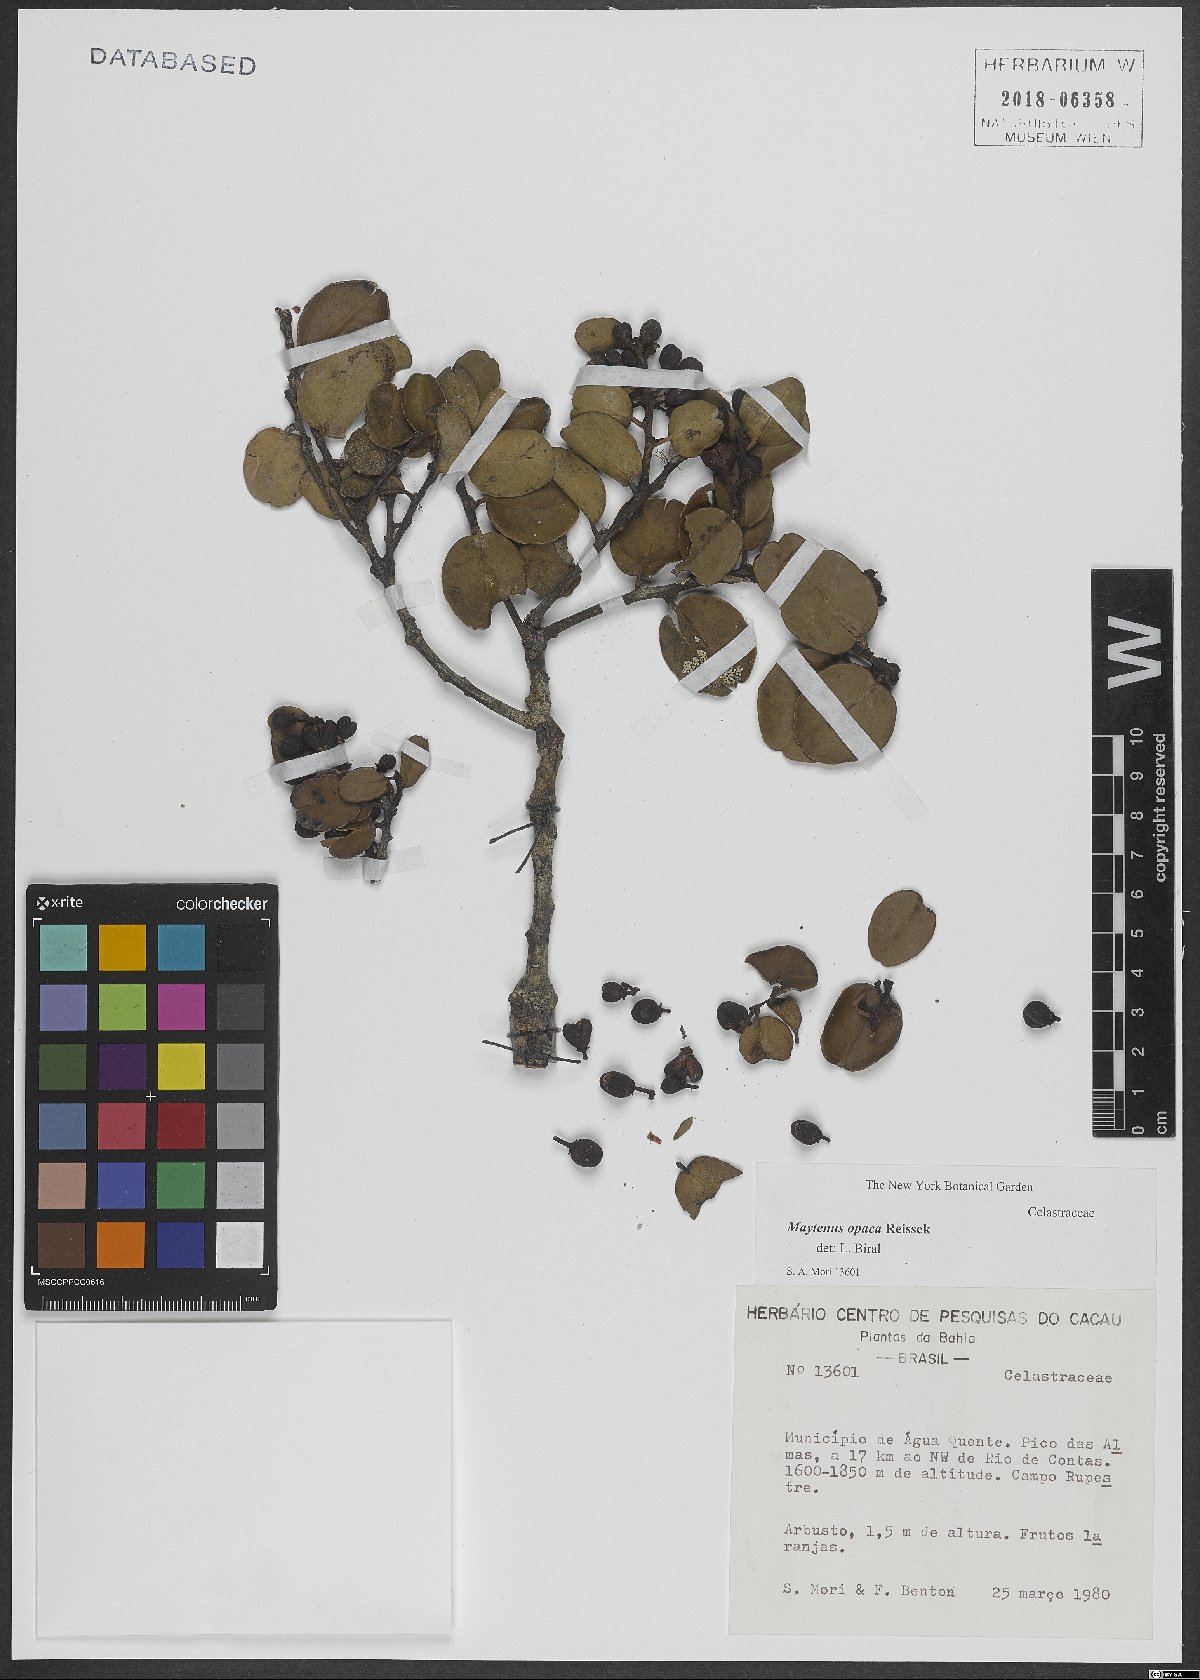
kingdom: Plantae
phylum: Tracheophyta
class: Magnoliopsida
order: Celastrales
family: Celastraceae
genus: Monteverdia
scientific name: Monteverdia opaca
